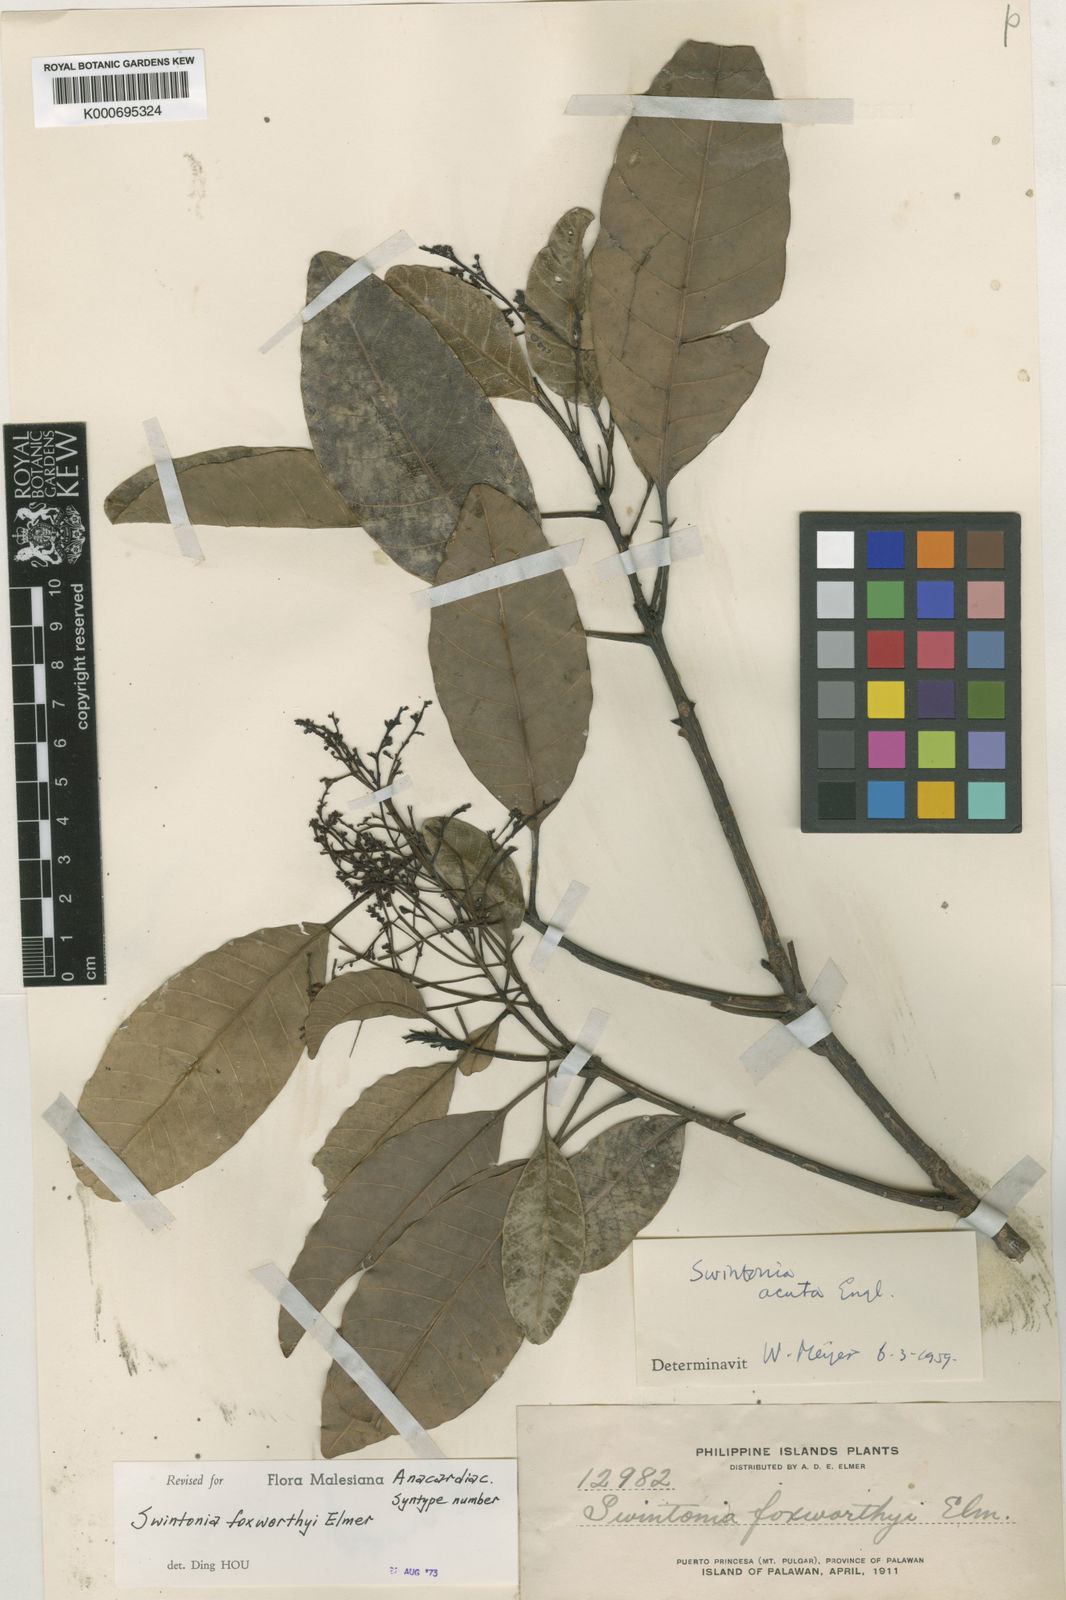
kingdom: Plantae
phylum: Tracheophyta
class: Magnoliopsida
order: Sapindales
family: Anacardiaceae
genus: Swintonia
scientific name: Swintonia foxworthyi
